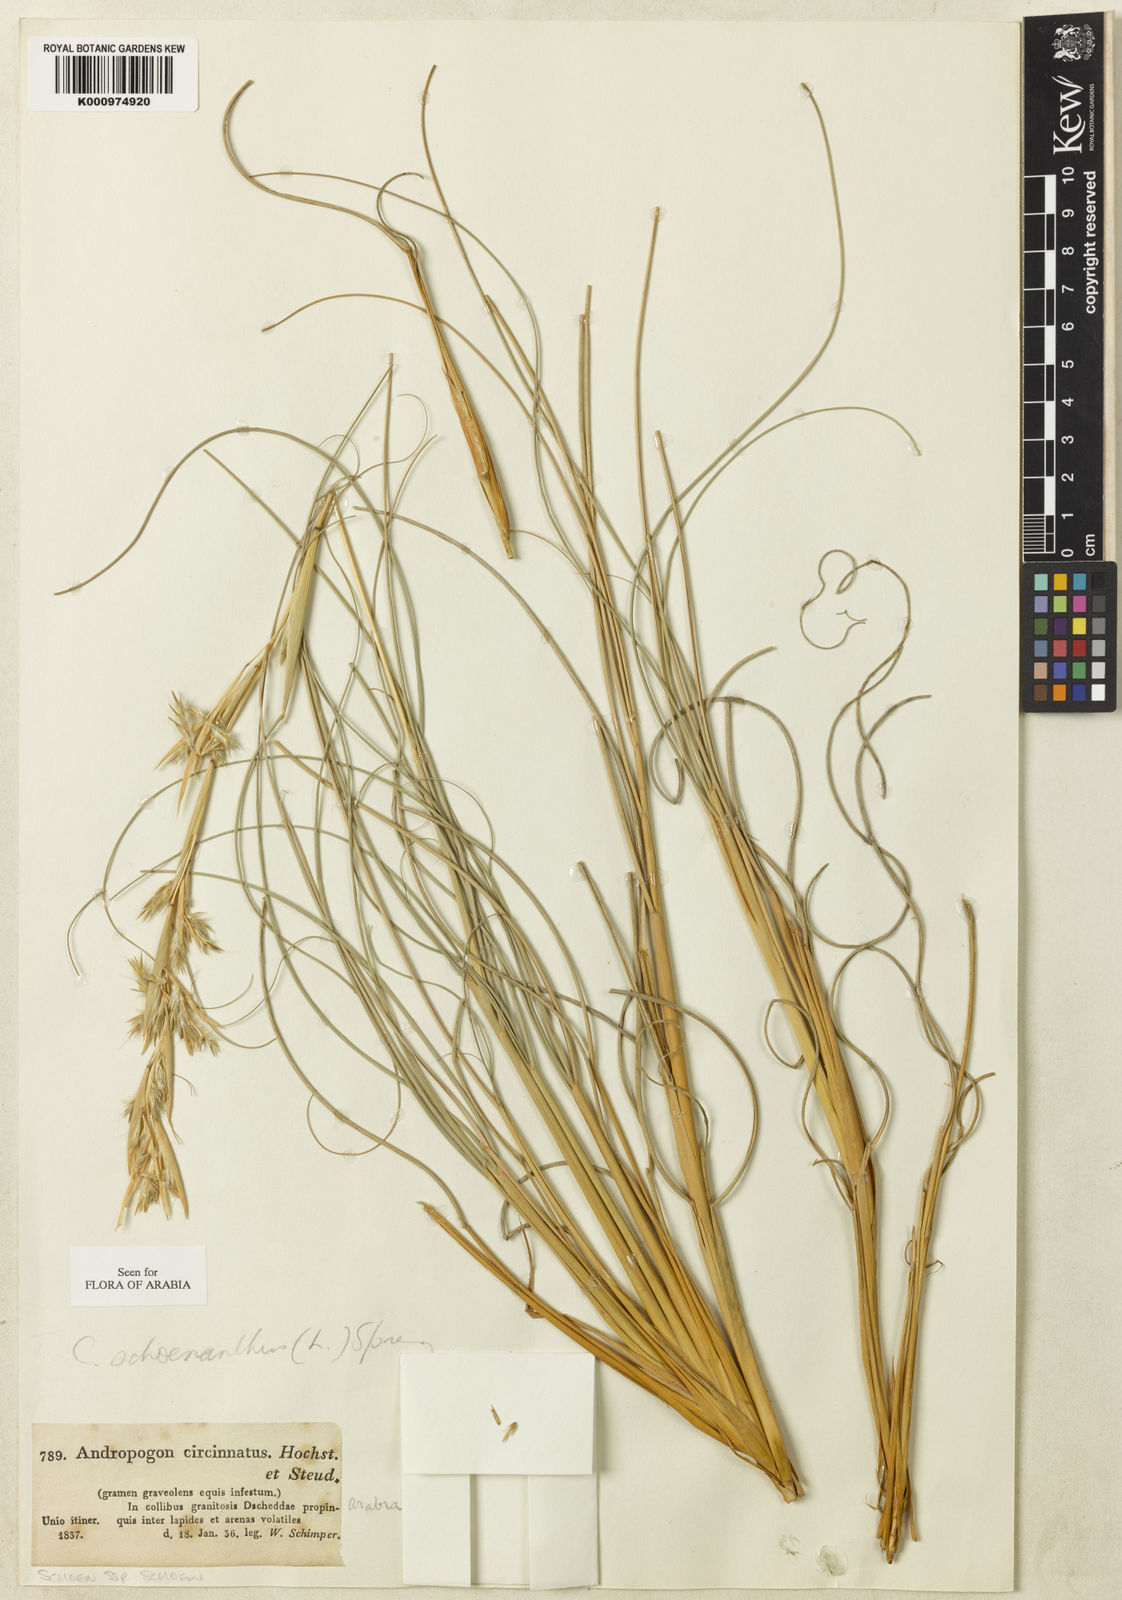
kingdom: Plantae
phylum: Tracheophyta
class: Liliopsida
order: Poales
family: Poaceae
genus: Cymbopogon
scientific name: Cymbopogon schoenanthus
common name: Geranium grass
